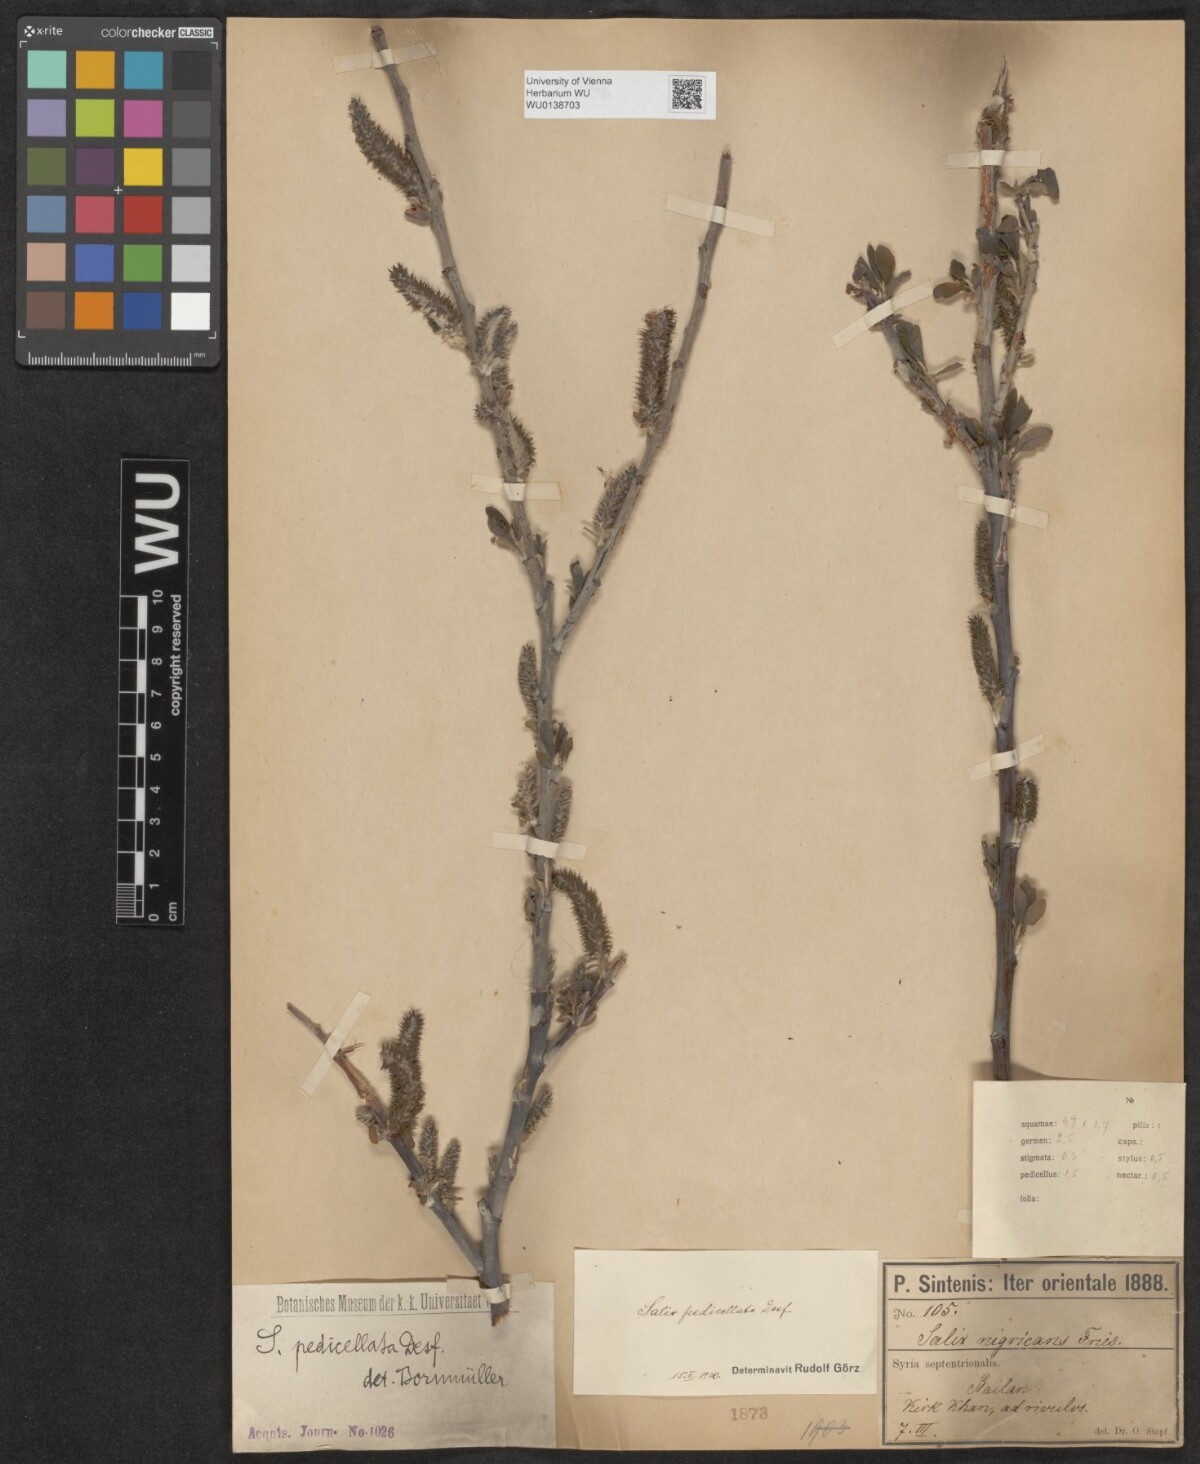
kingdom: Plantae
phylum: Tracheophyta
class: Magnoliopsida
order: Malpighiales
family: Salicaceae
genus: Salix
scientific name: Salix pedicellata
